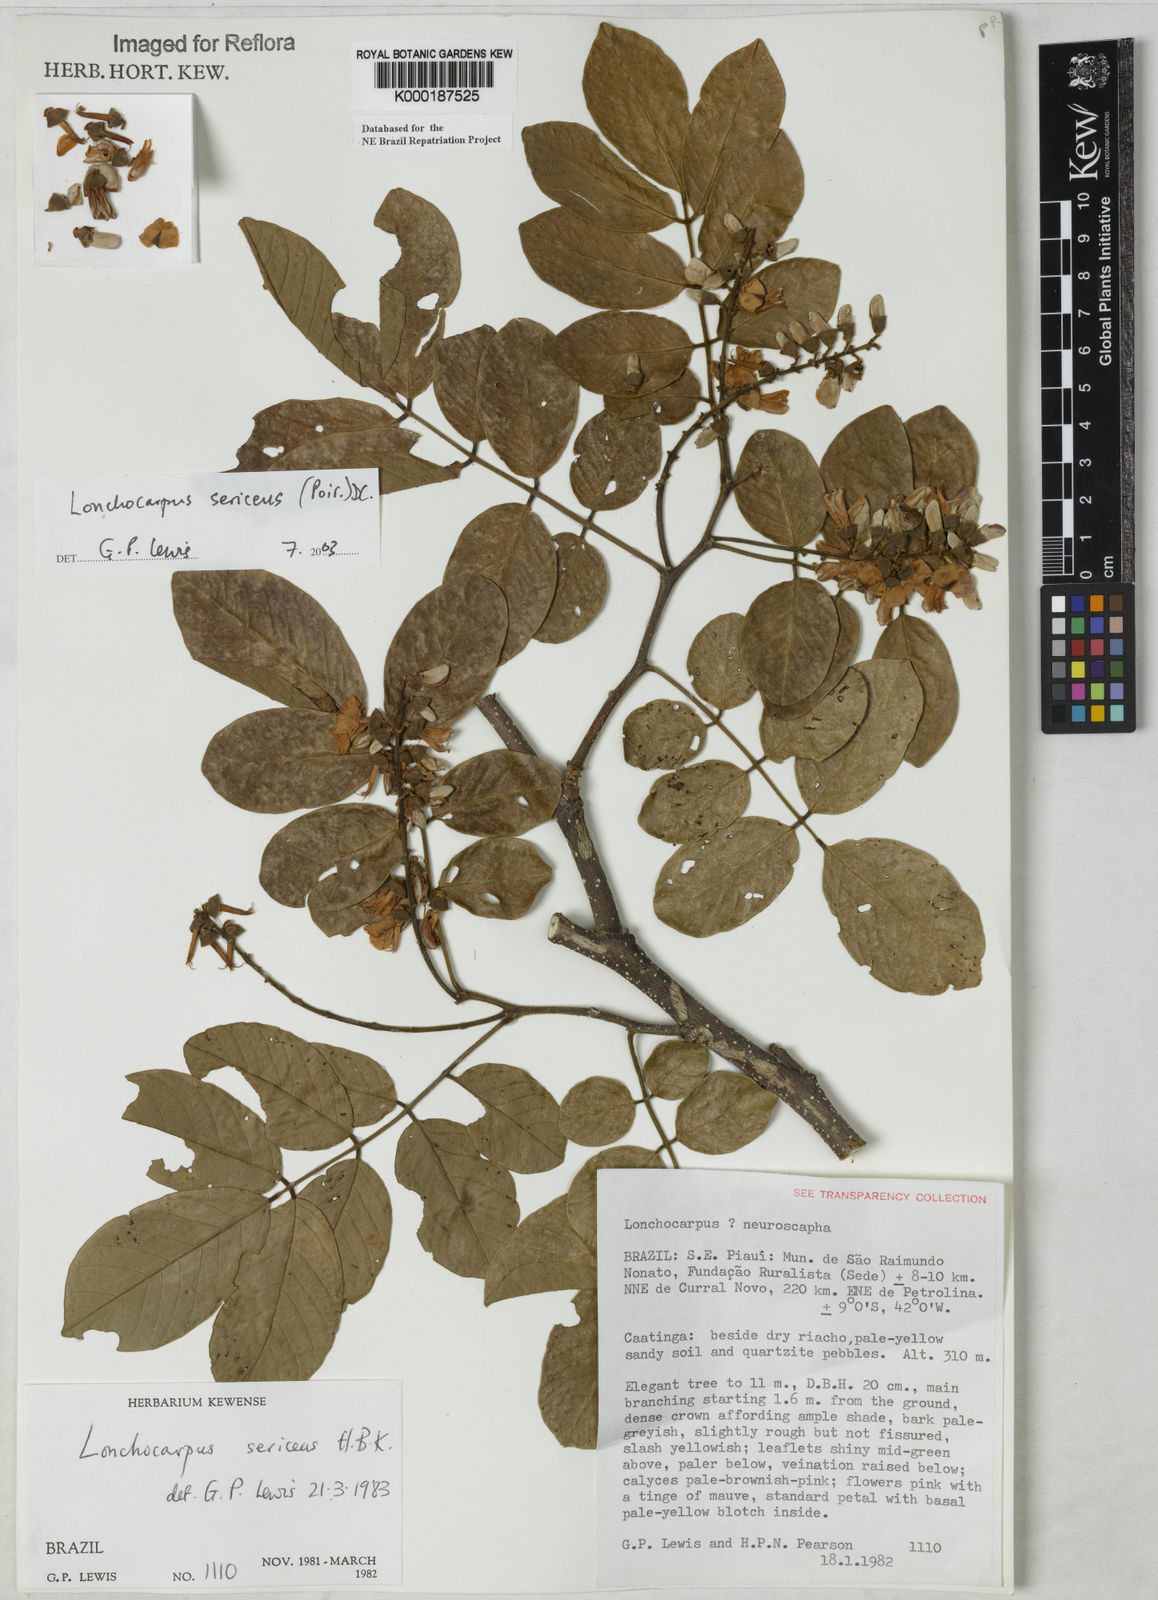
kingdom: Plantae
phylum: Tracheophyta
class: Magnoliopsida
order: Fabales
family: Fabaceae
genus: Lonchocarpus
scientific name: Lonchocarpus sericeus
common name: Savonette
